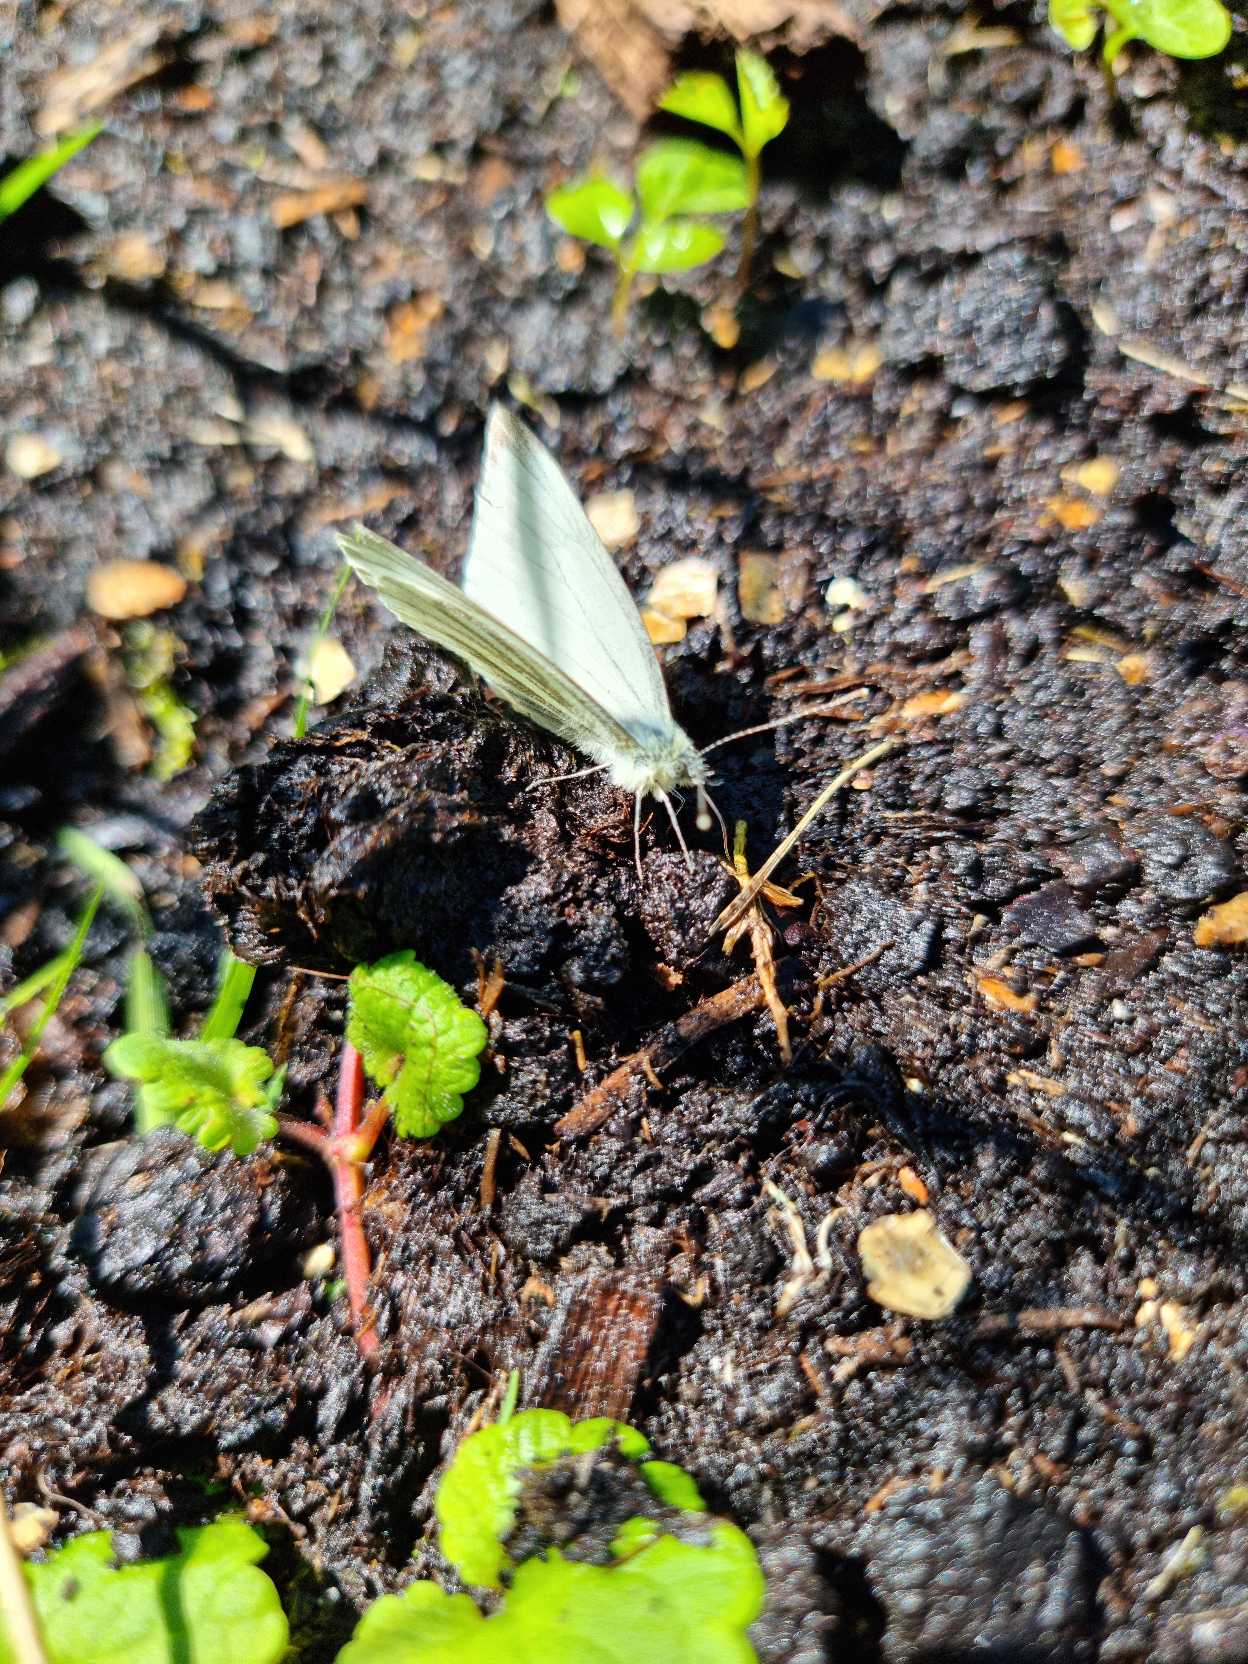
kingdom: Animalia
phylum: Arthropoda
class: Insecta
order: Lepidoptera
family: Pieridae
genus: Pieris
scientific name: Pieris napi
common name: Grønåret kålsommerfugl
